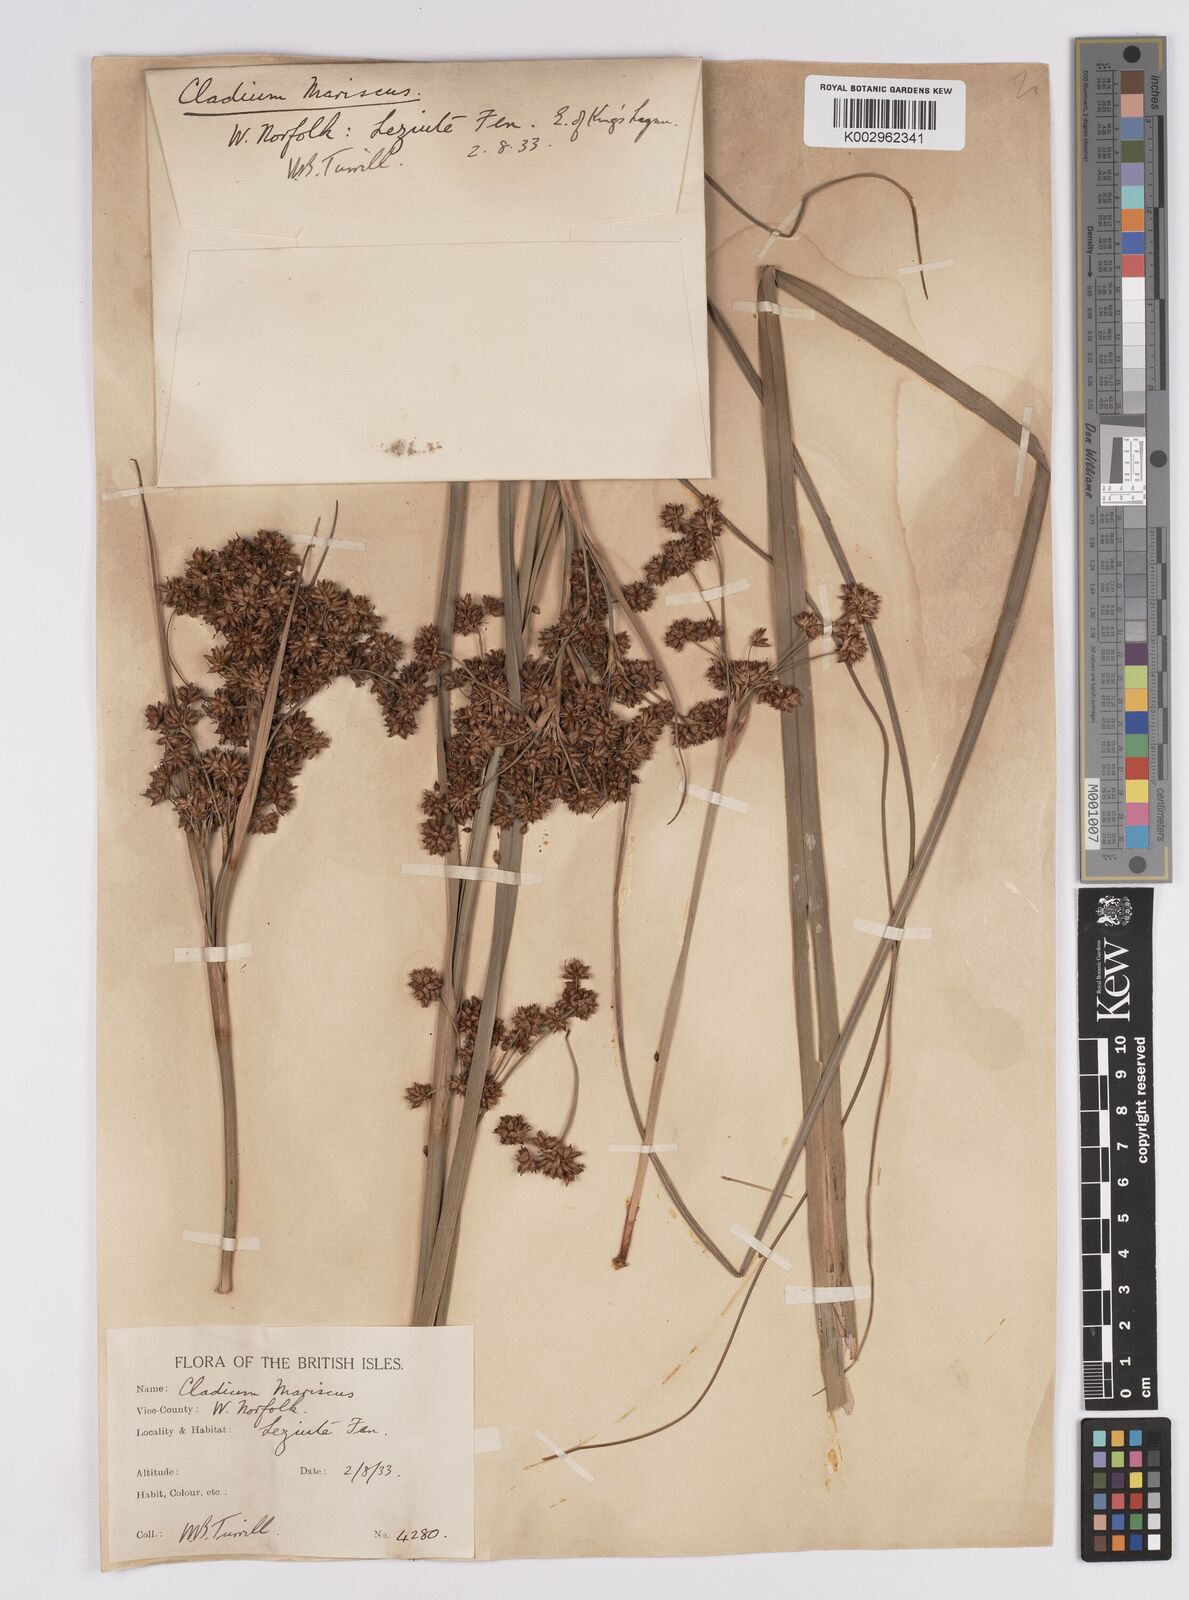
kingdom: Plantae
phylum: Tracheophyta
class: Liliopsida
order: Poales
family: Cyperaceae
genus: Cladium
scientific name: Cladium mariscus
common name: Great fen-sedge
